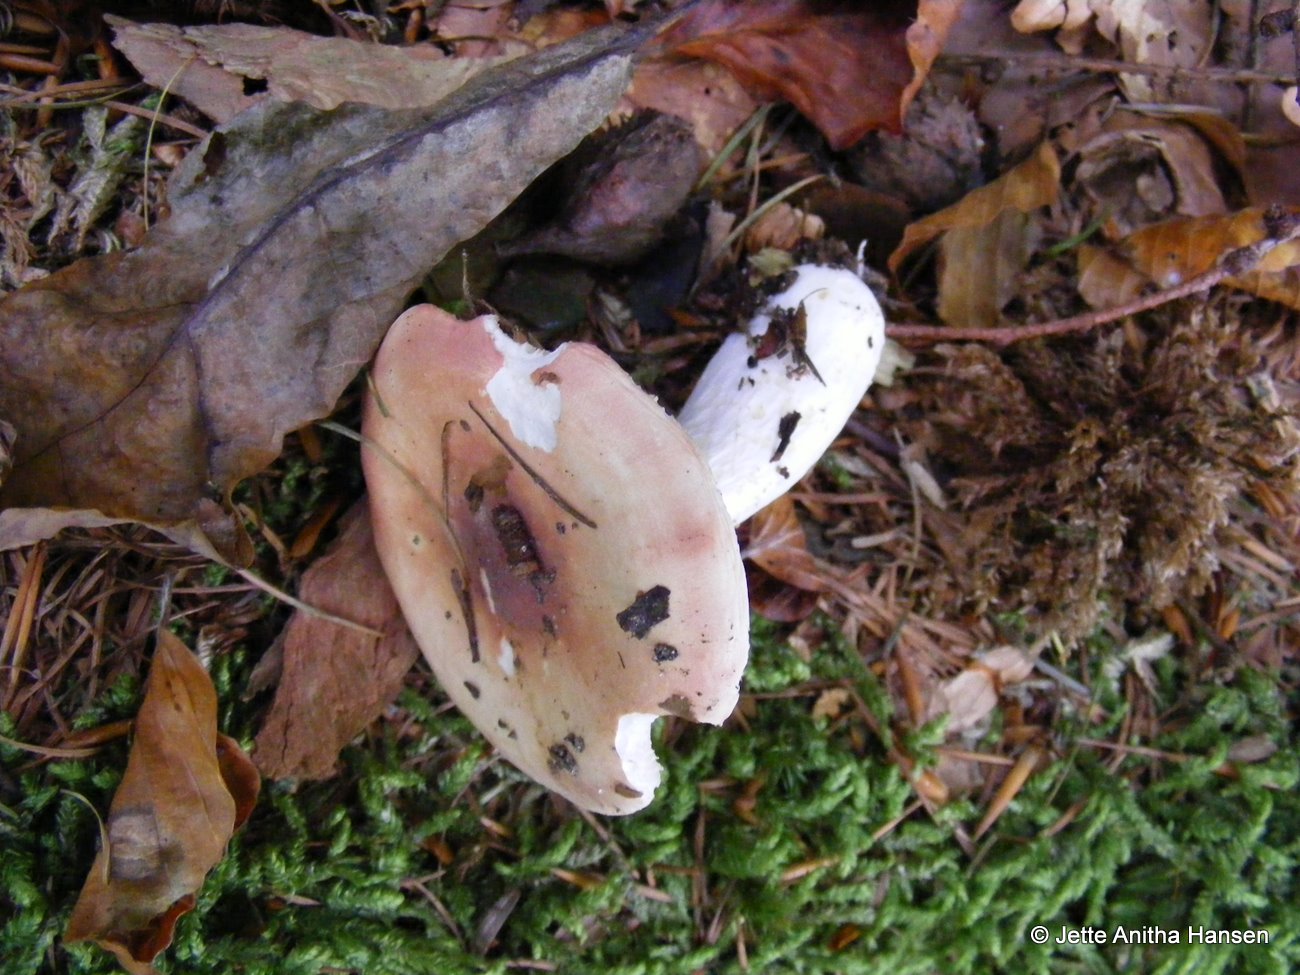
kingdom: Fungi
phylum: Basidiomycota
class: Agaricomycetes
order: Russulales
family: Russulaceae
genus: Russula
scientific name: Russula aurora
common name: rosa skørhat
